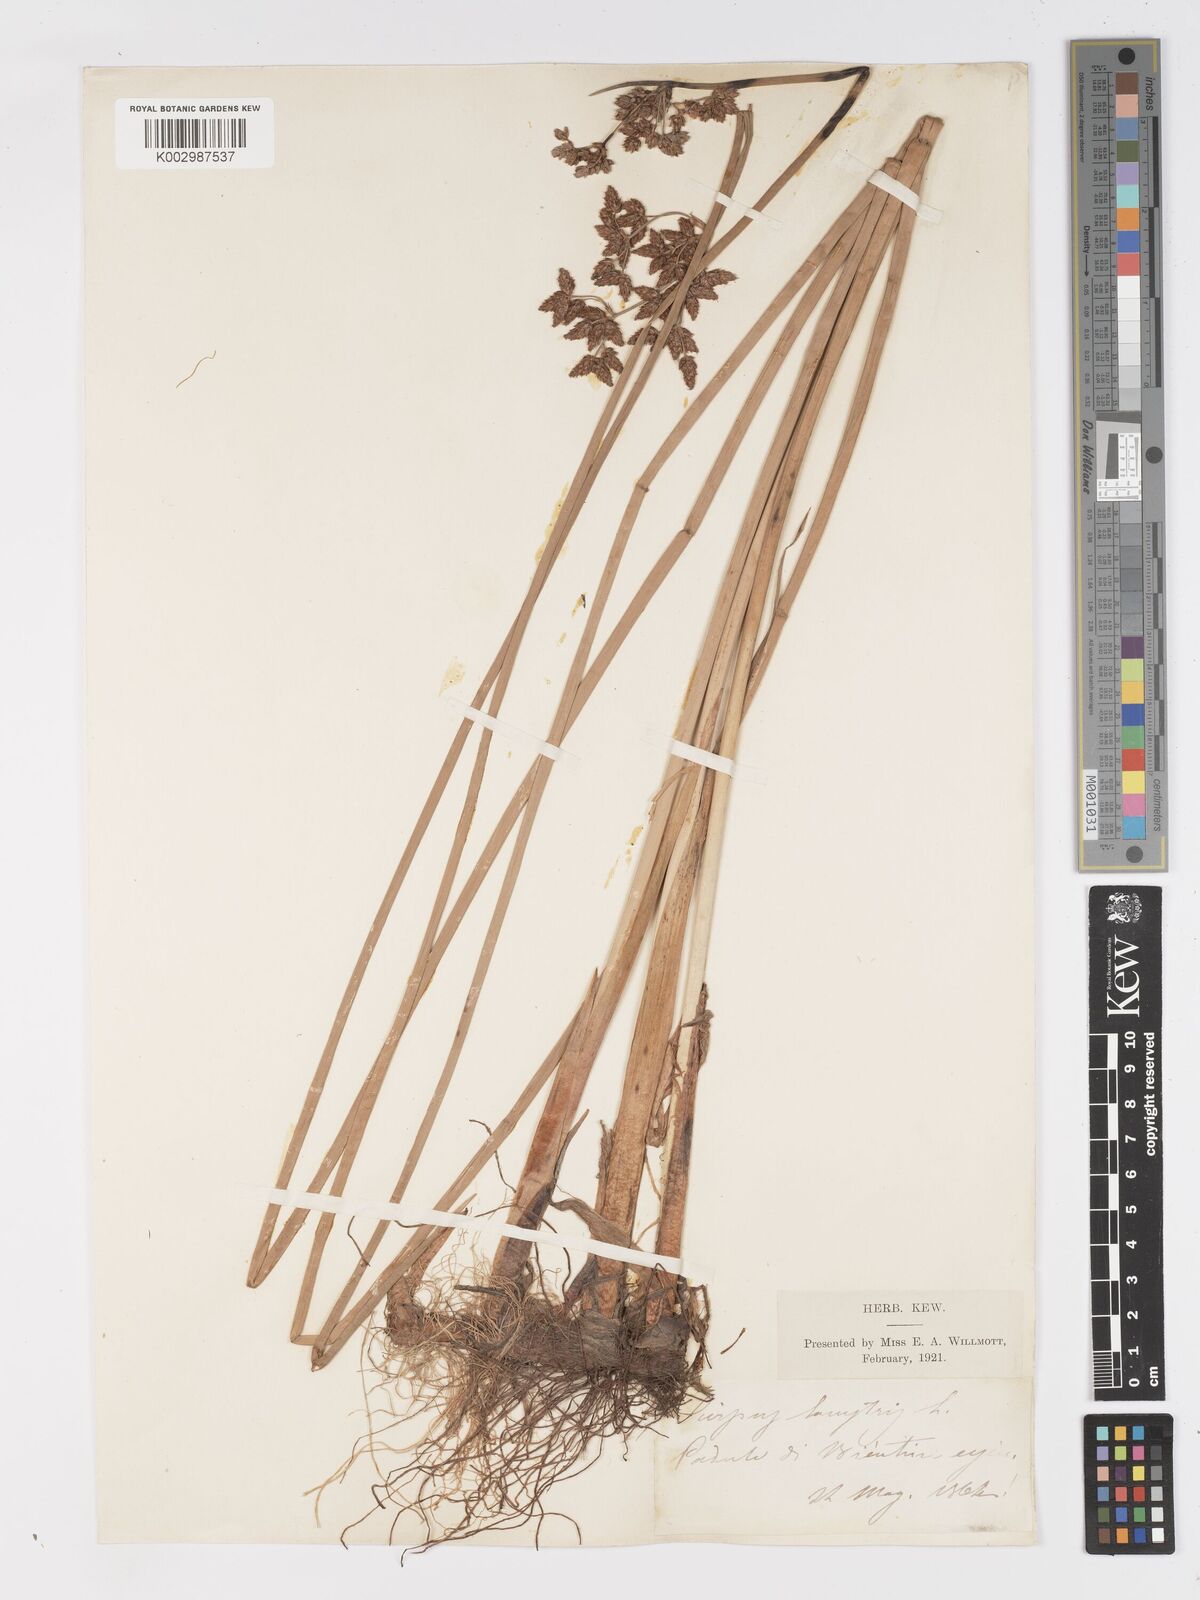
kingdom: Plantae
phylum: Tracheophyta
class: Liliopsida
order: Poales
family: Cyperaceae
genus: Schoenoplectus
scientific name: Schoenoplectus lacustris
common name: Common club-rush
